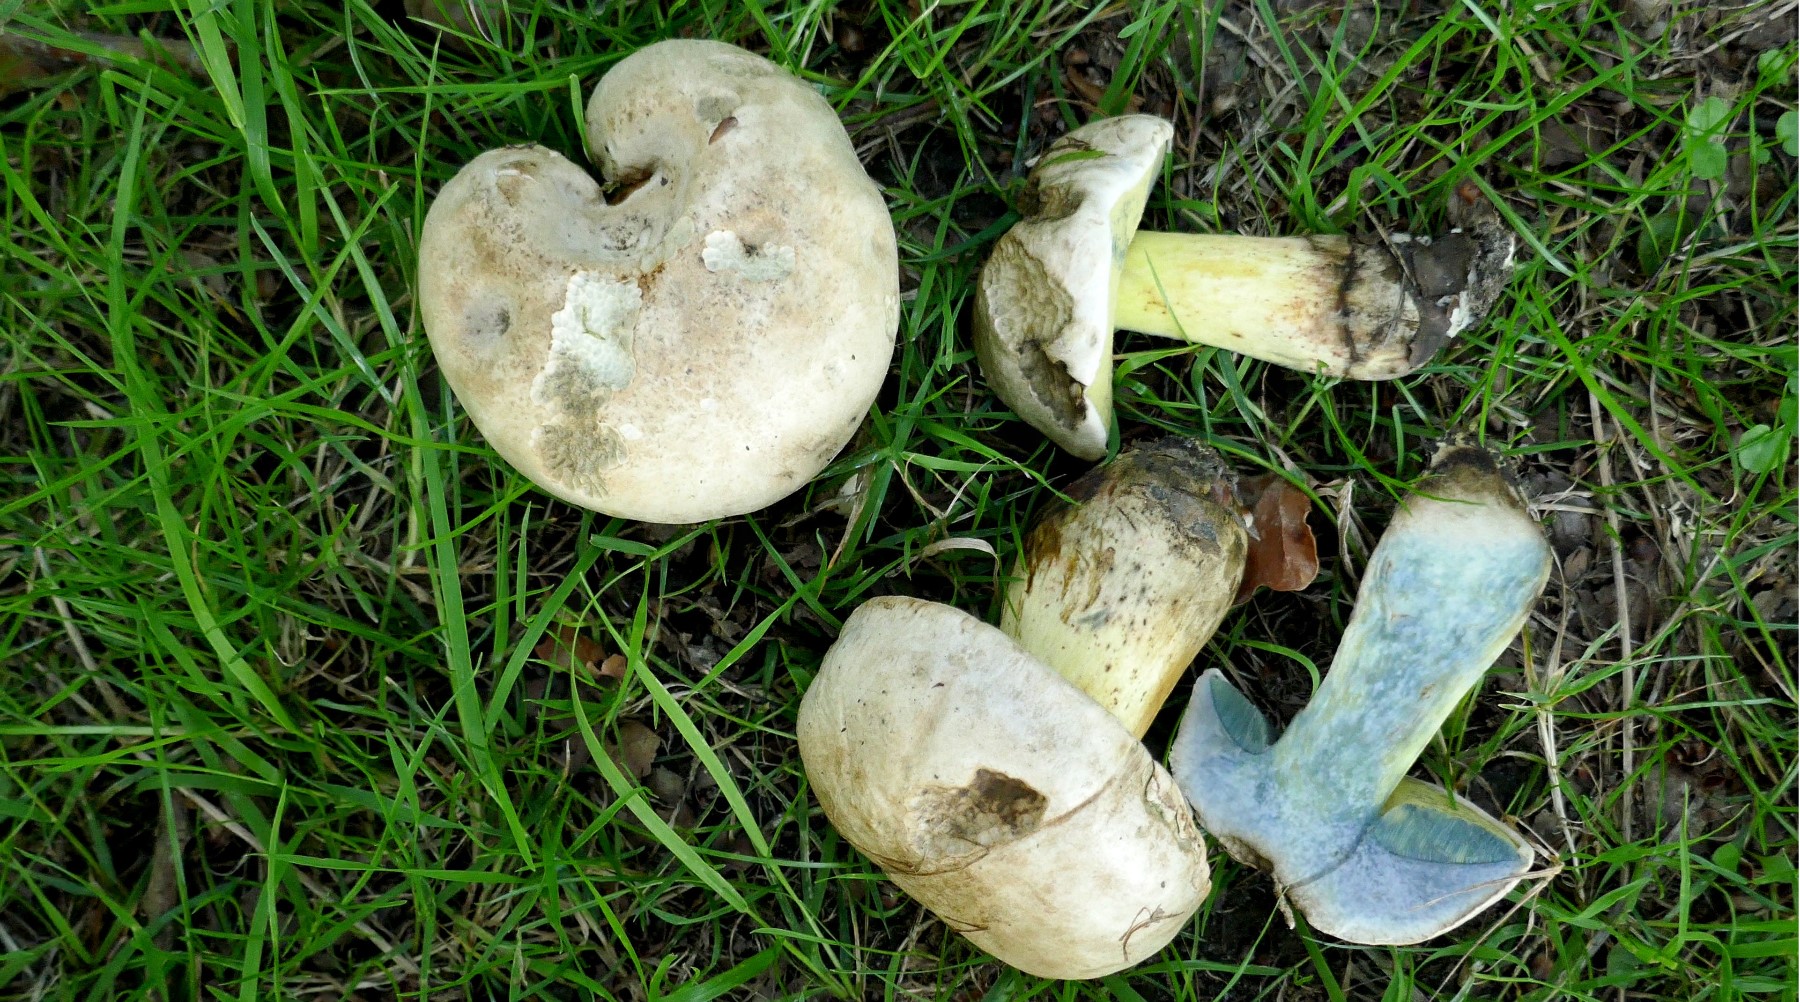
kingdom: Fungi
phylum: Basidiomycota
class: Agaricomycetes
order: Boletales
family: Boletaceae
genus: Caloboletus
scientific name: Caloboletus radicans
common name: rod-rørhat
